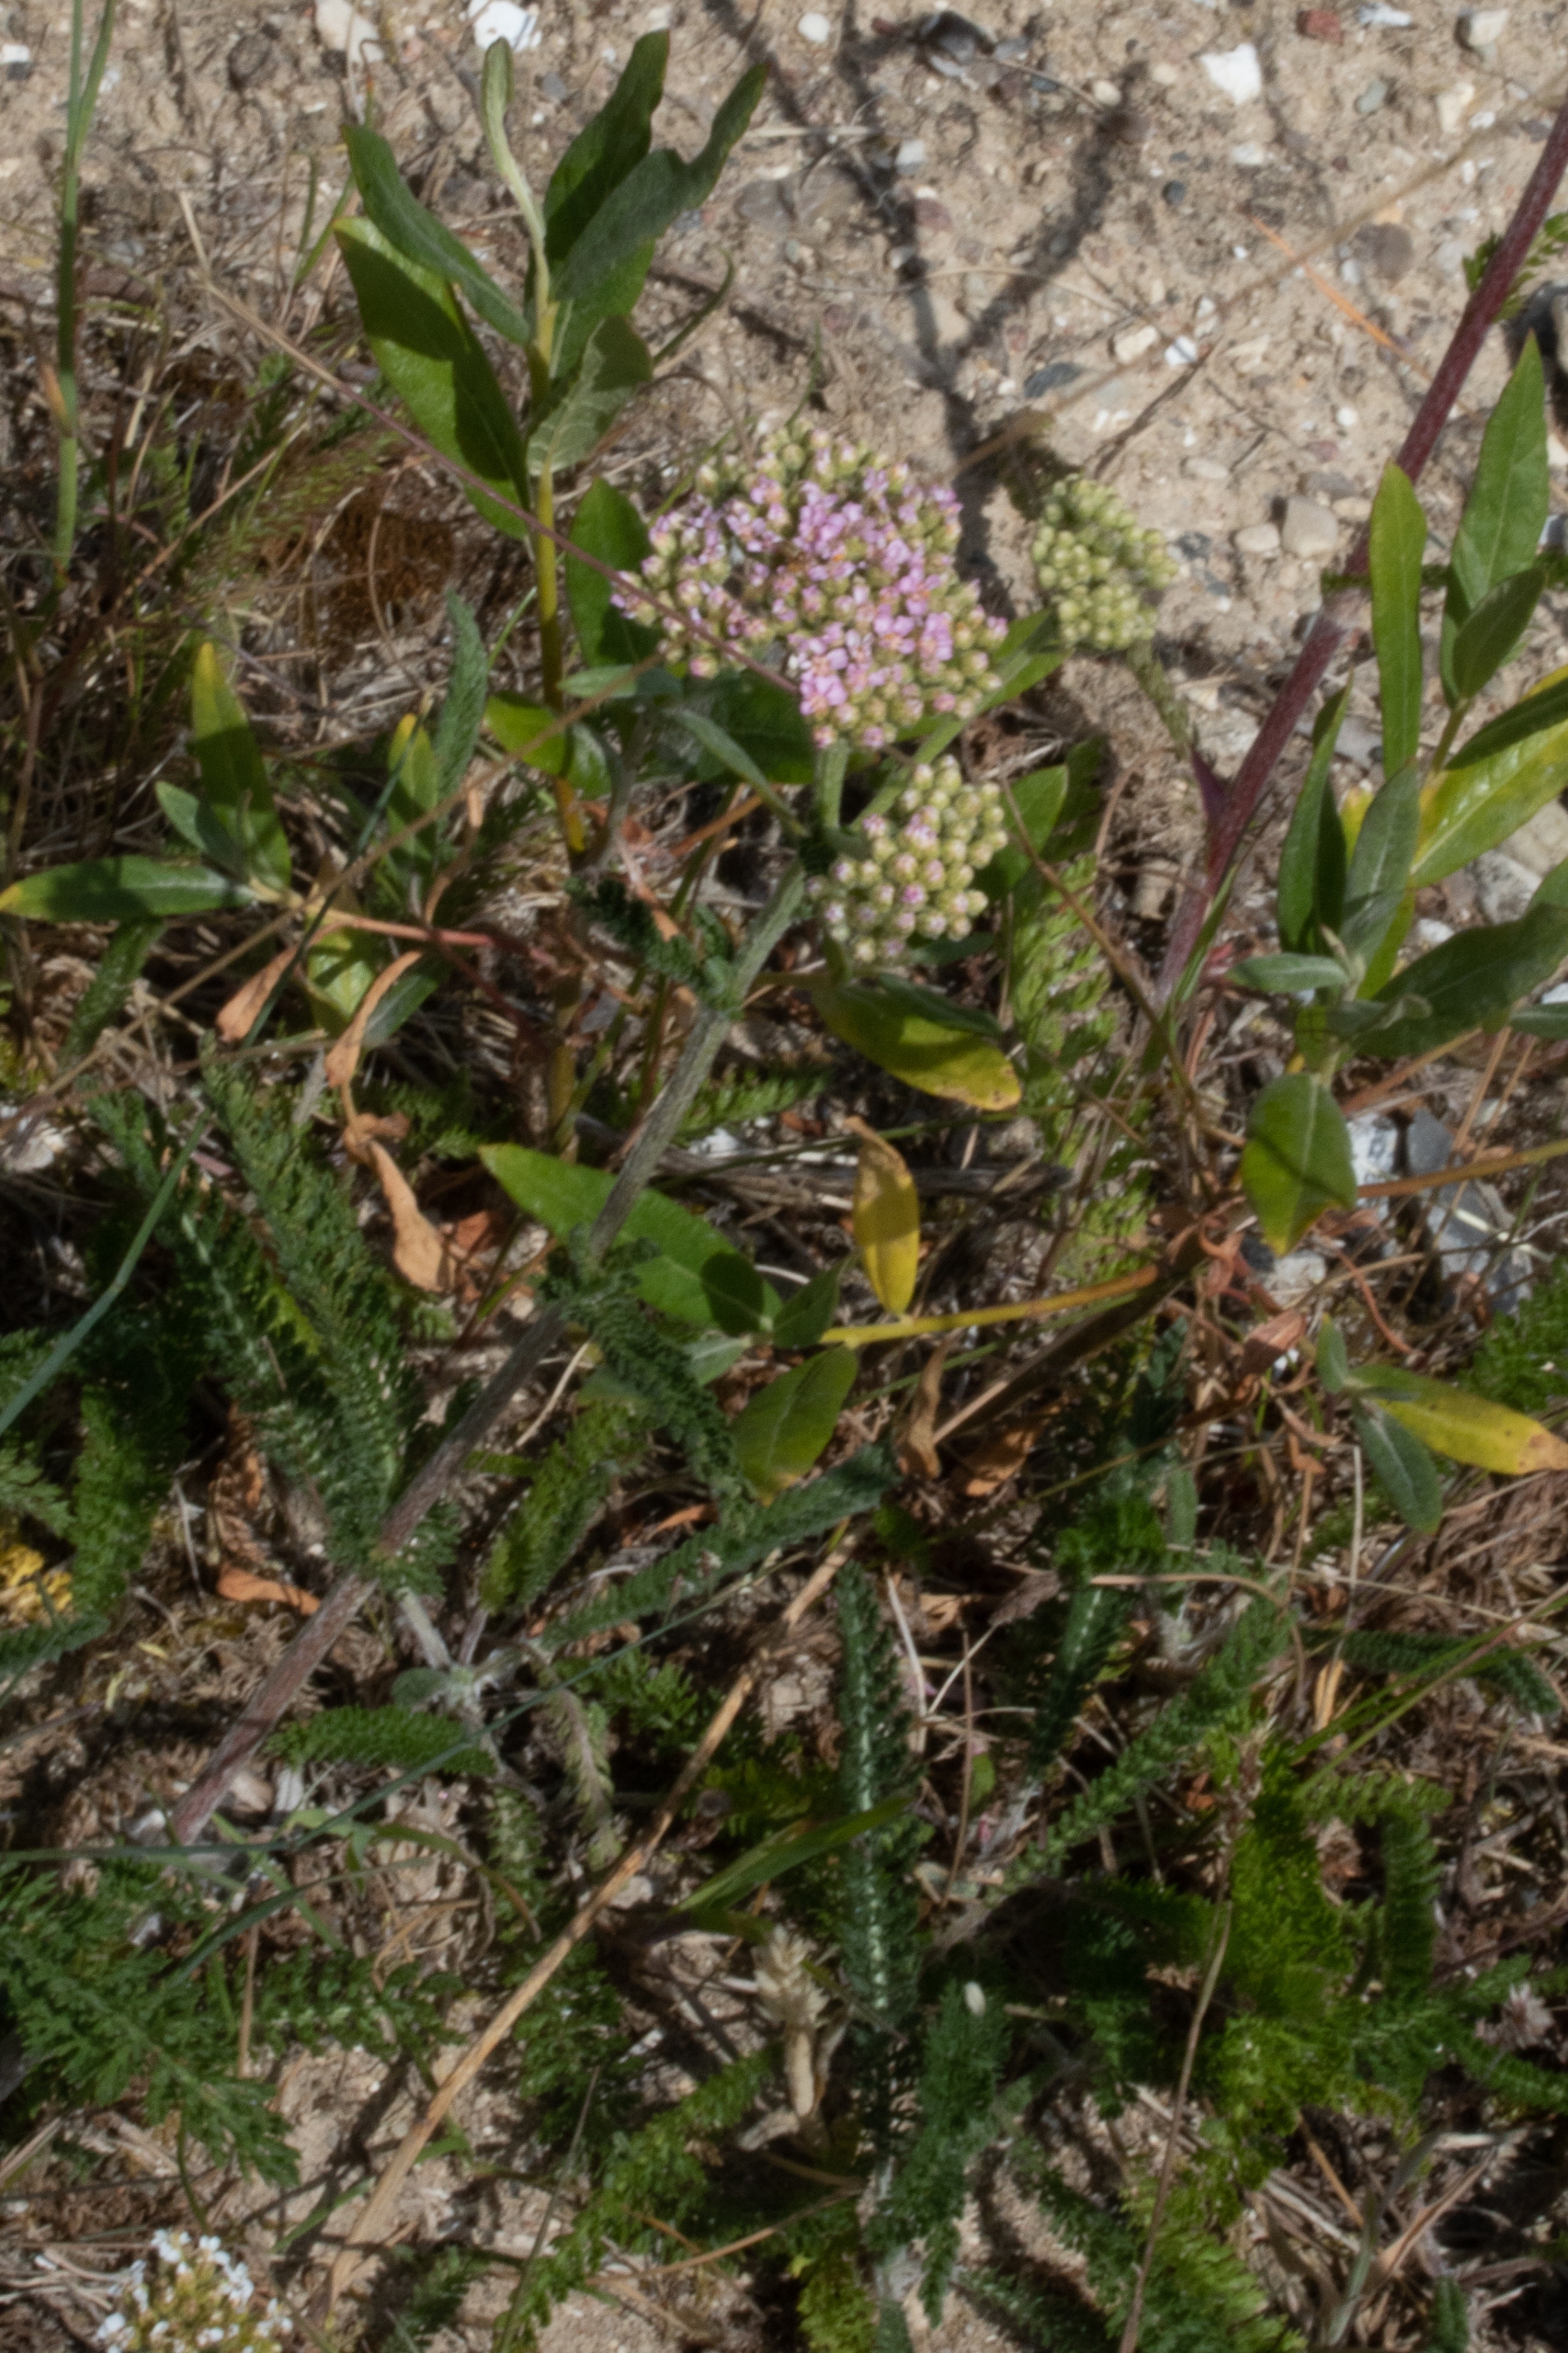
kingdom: Plantae
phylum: Tracheophyta
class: Magnoliopsida
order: Asterales
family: Asteraceae
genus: Achillea
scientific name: Achillea millefolium
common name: Almindelig røllike
